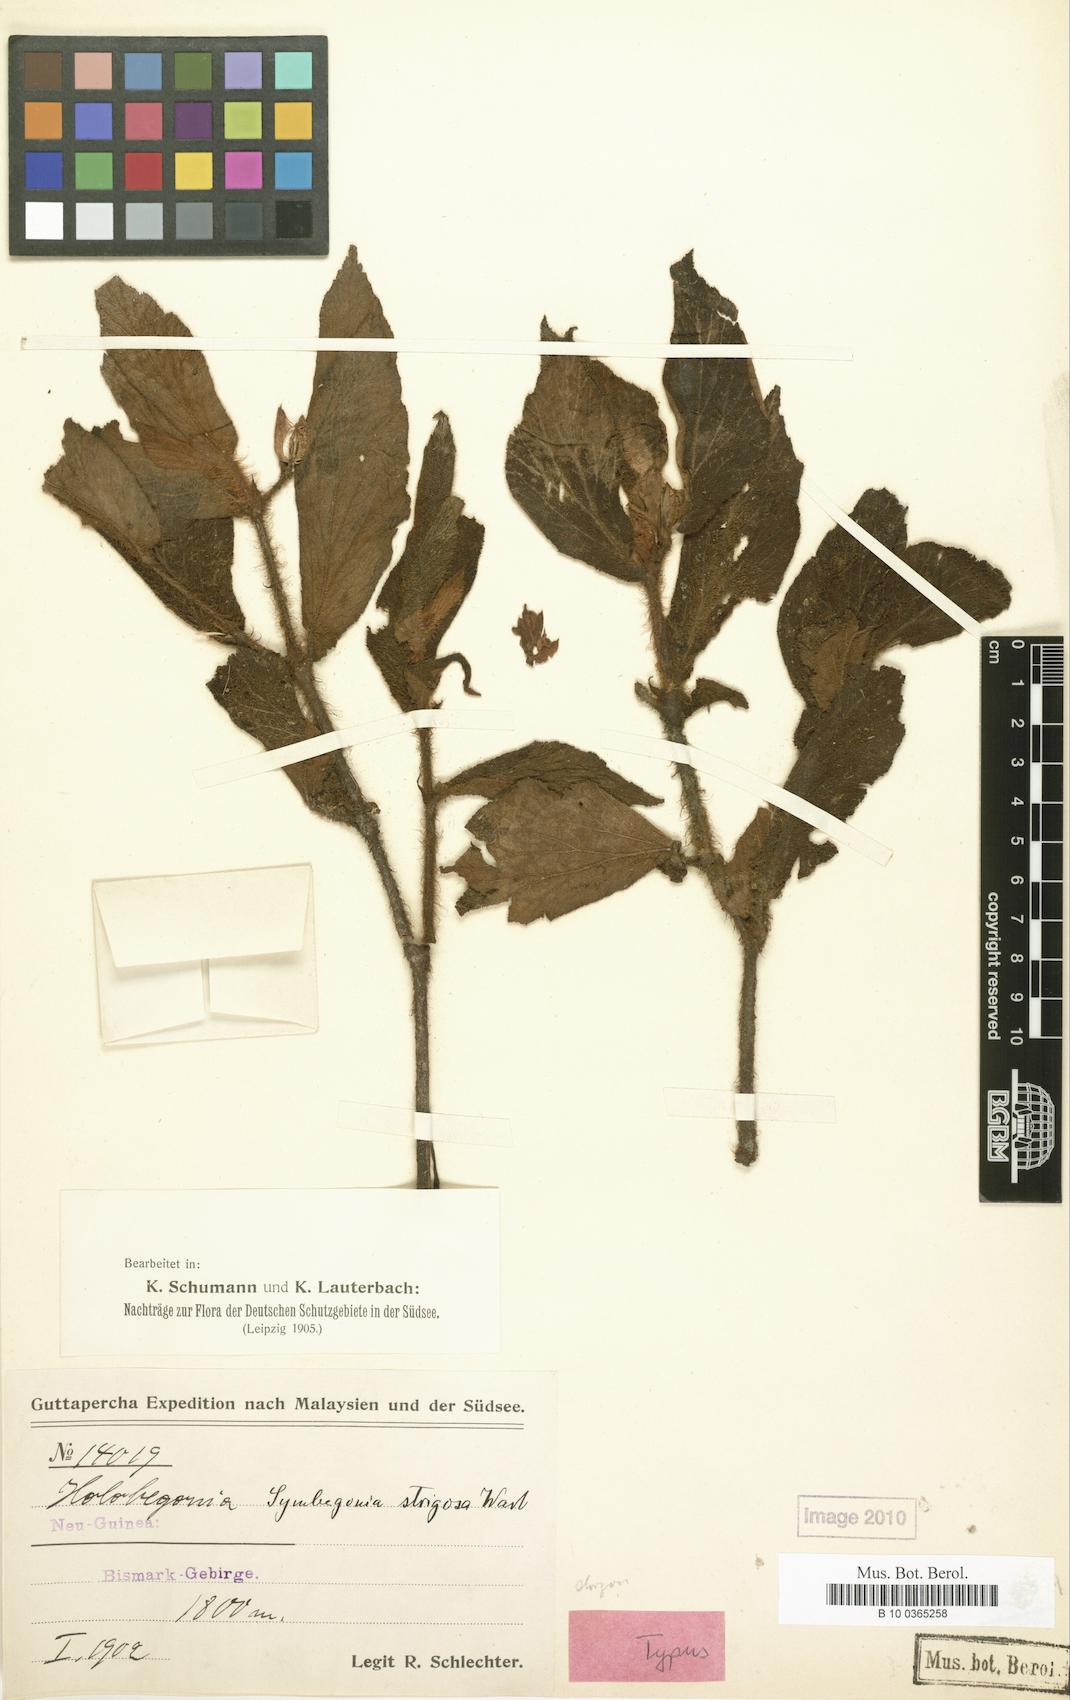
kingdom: Plantae
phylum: Tracheophyta
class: Magnoliopsida
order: Cucurbitales
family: Begoniaceae
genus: Begonia
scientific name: Begonia strigosa
